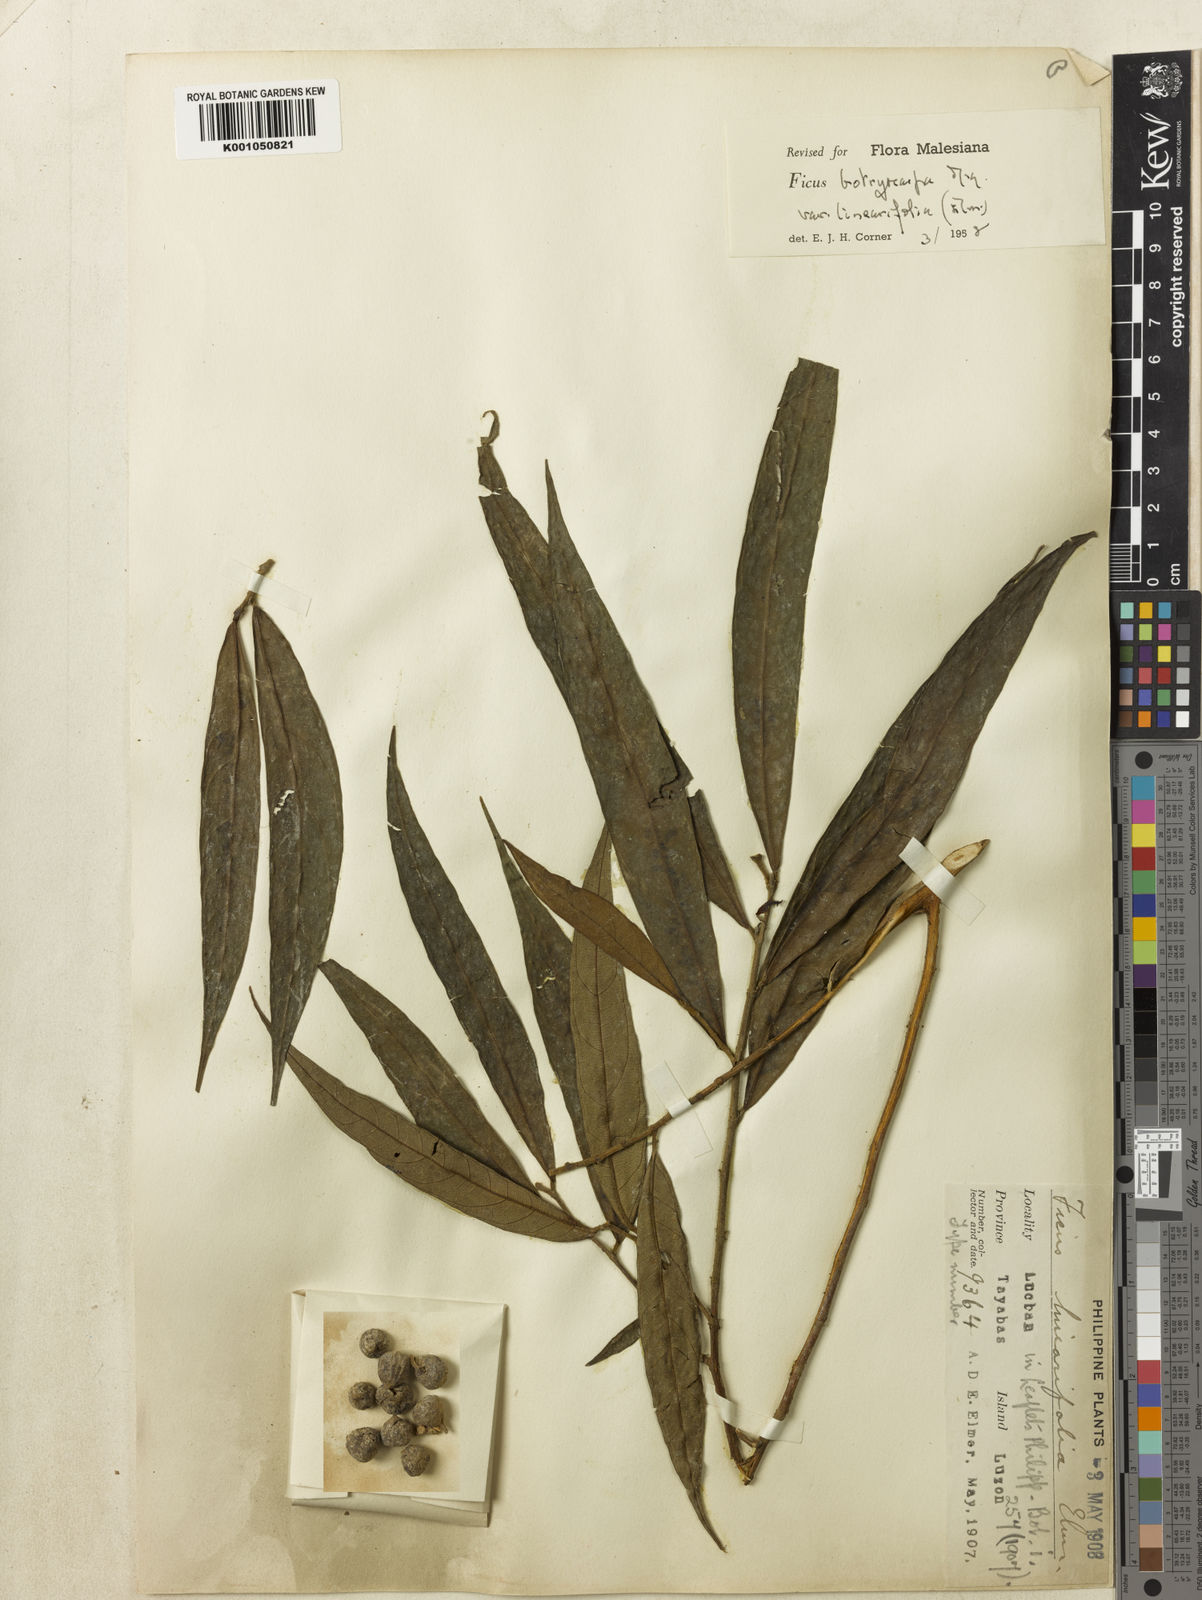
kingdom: Plantae
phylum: Tracheophyta
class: Magnoliopsida
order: Rosales
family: Moraceae
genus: Ficus
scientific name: Ficus botryocarpa
